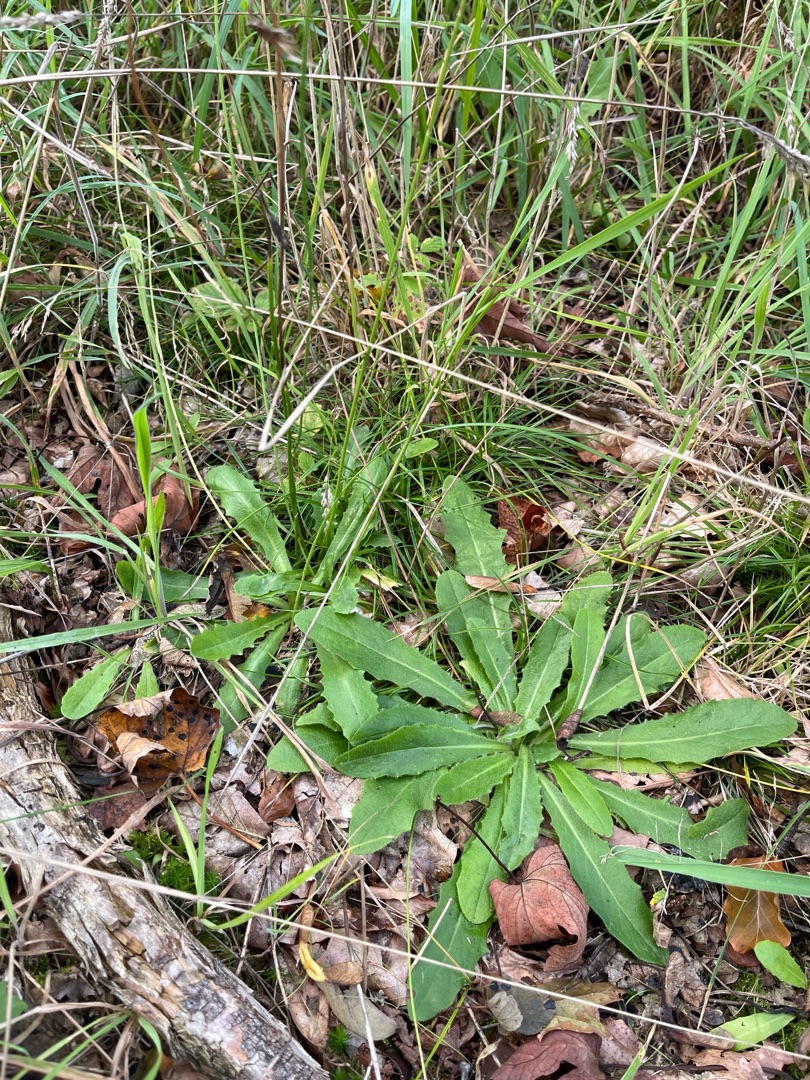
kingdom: Plantae
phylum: Tracheophyta
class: Magnoliopsida
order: Asterales
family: Asteraceae
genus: Hypochaeris
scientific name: Hypochaeris radicata
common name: Almindelig kongepen
